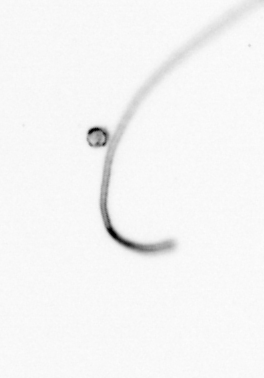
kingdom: Chromista
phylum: Ochrophyta
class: Bacillariophyceae
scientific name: Bacillariophyceae
